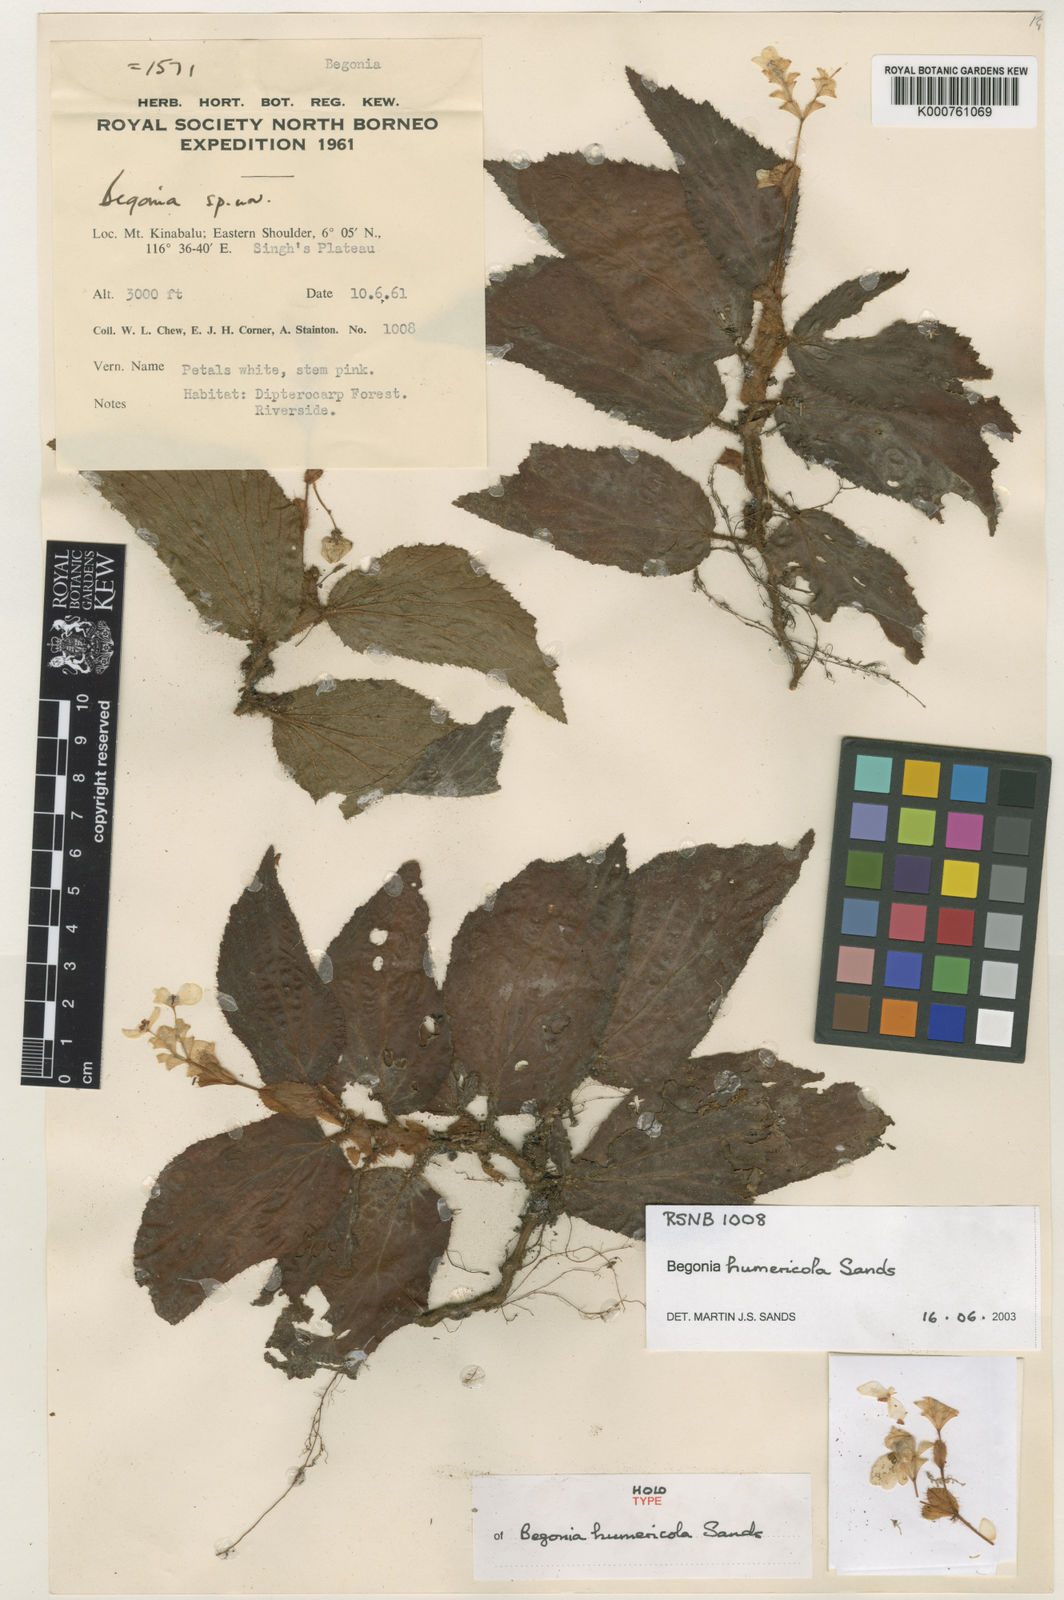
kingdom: Plantae
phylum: Tracheophyta
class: Magnoliopsida
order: Cucurbitales
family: Begoniaceae
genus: Begonia
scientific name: Begonia humericola
